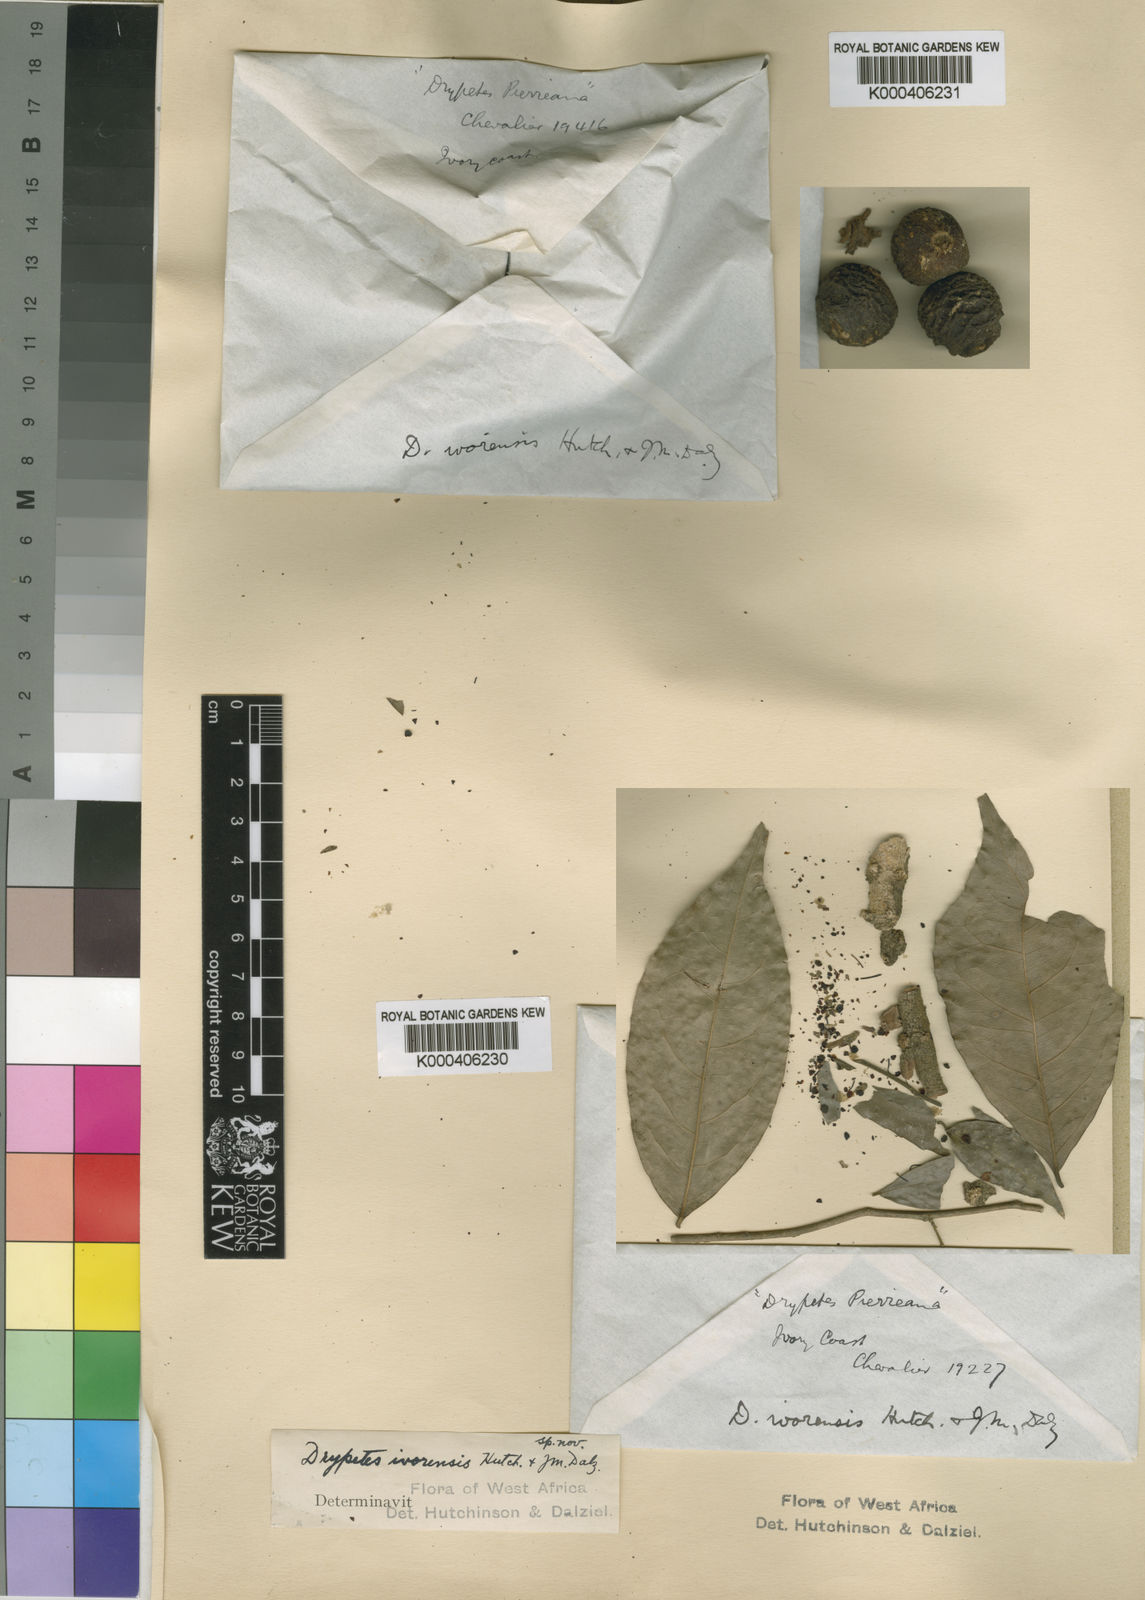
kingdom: Plantae
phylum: Tracheophyta
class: Magnoliopsida
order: Malpighiales
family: Putranjivaceae
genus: Drypetes
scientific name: Drypetes ivorensis
